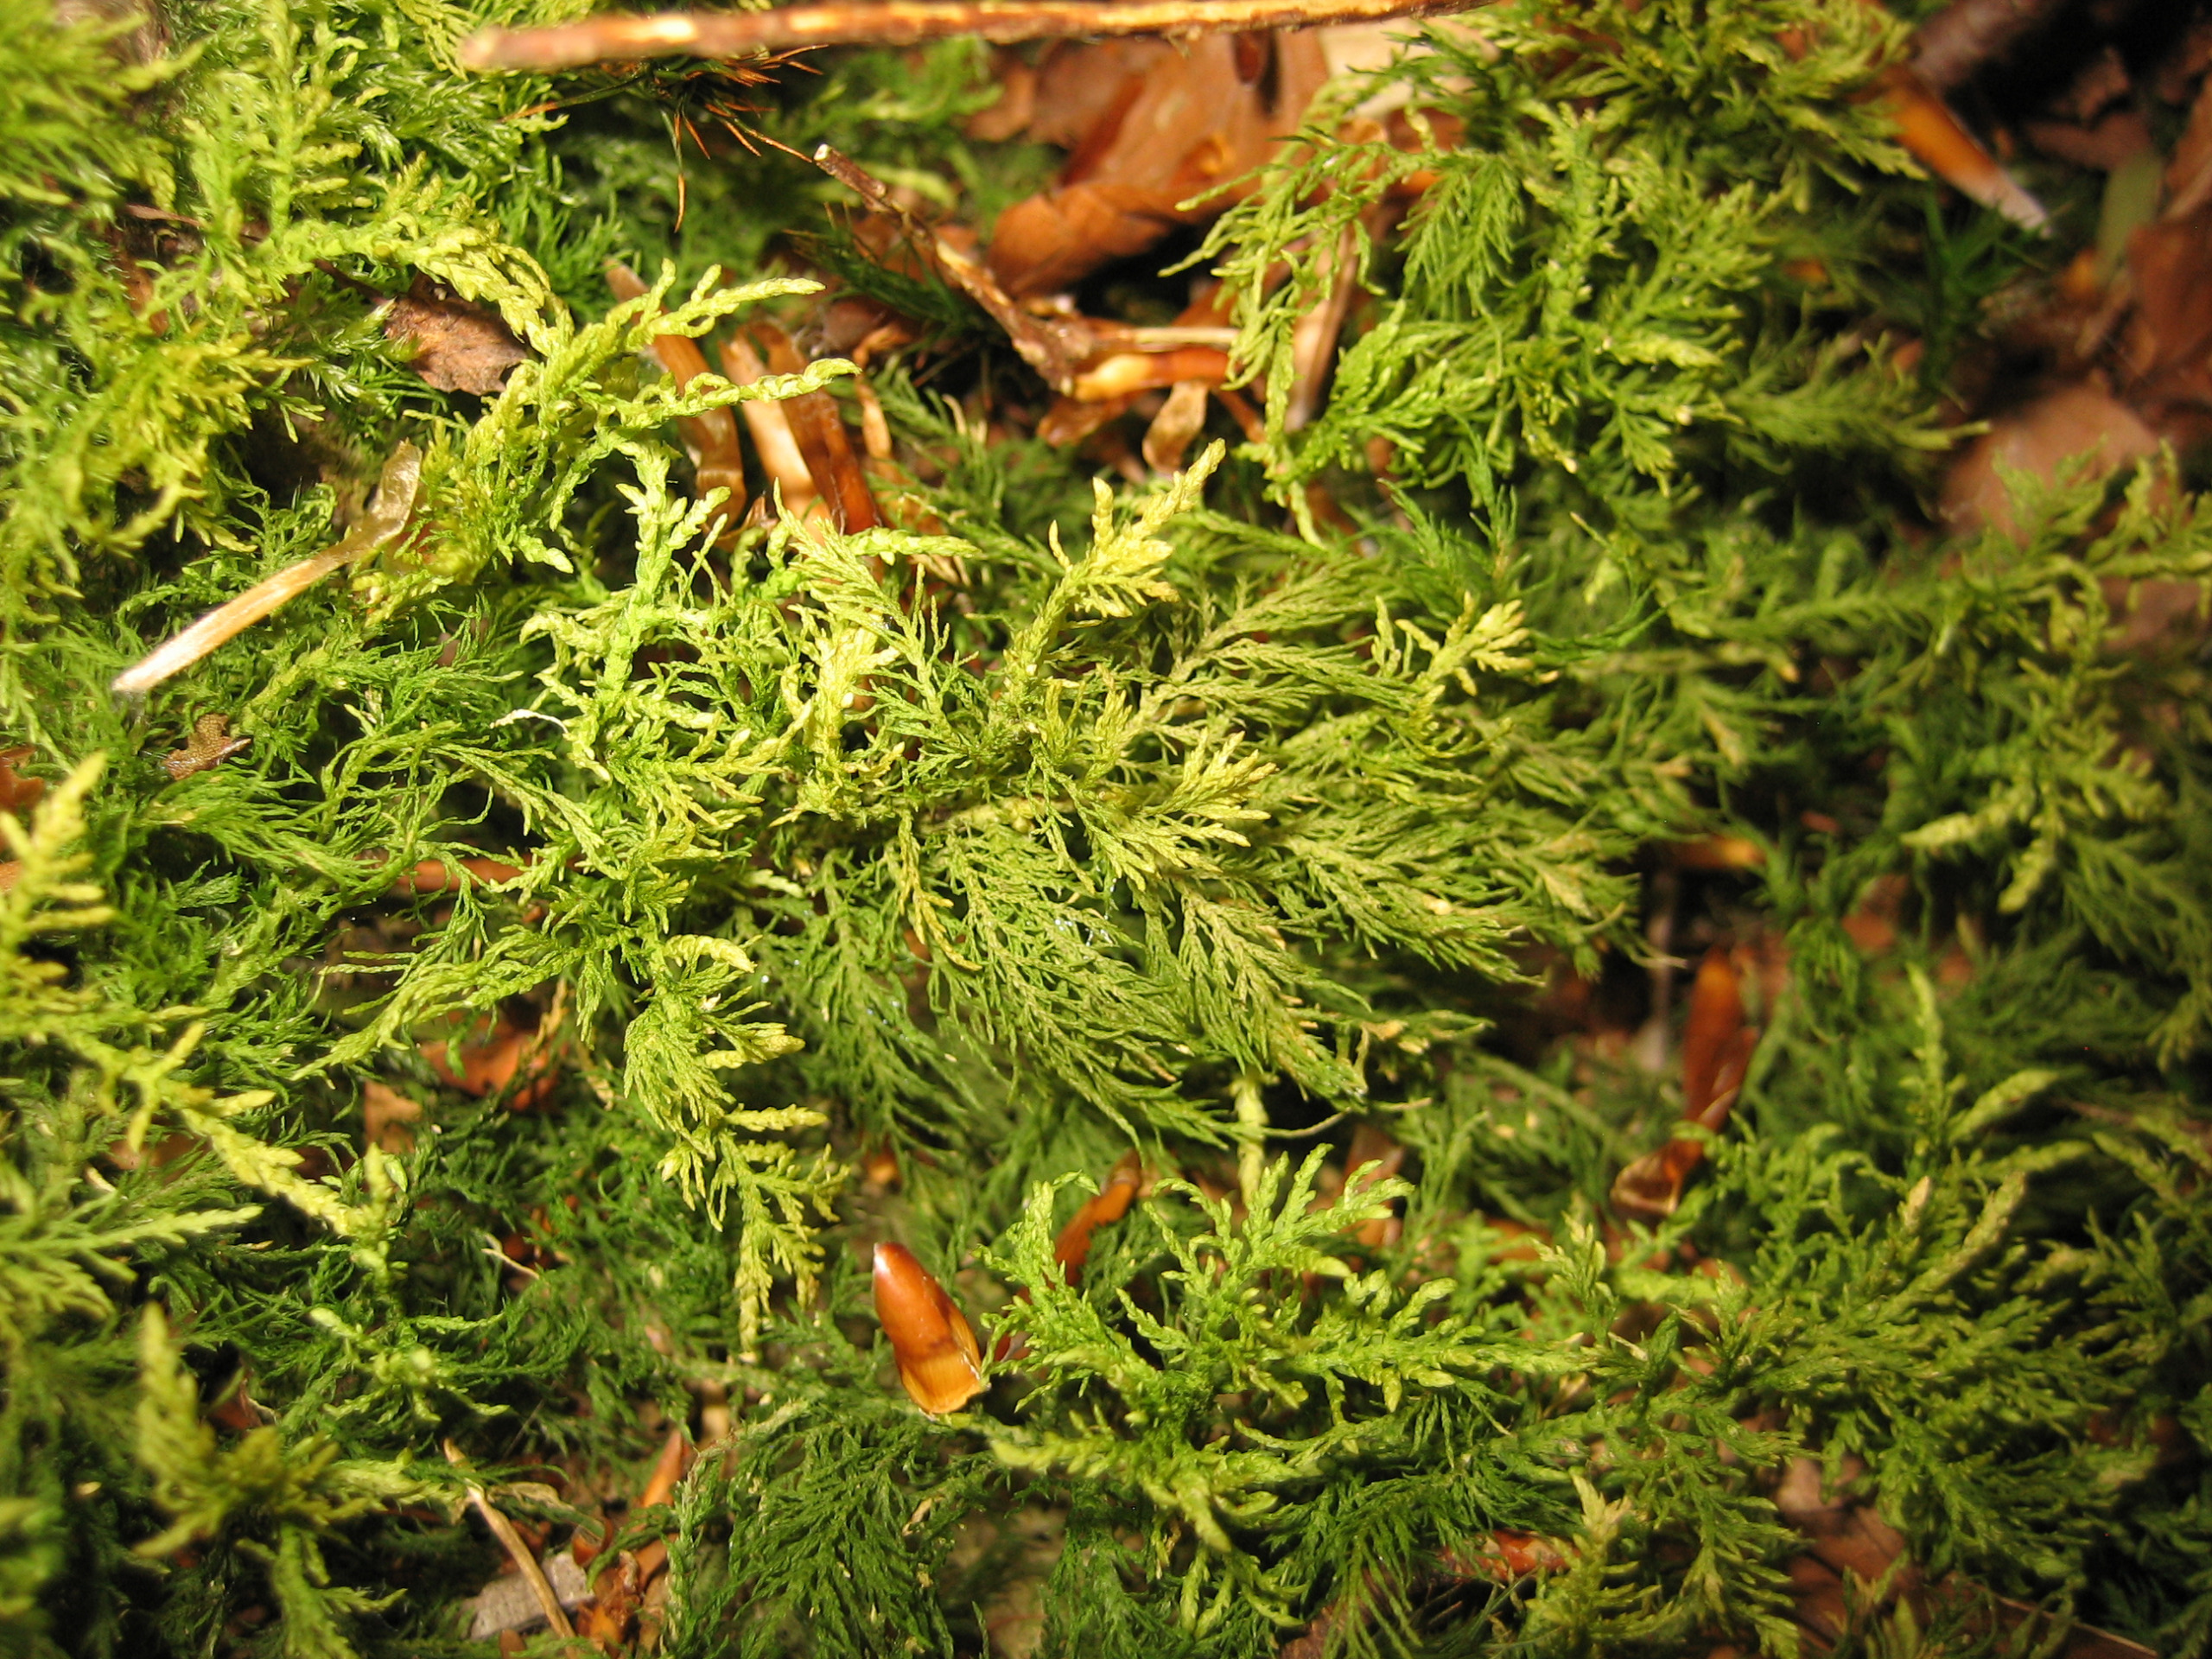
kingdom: Plantae
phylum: Bryophyta
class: Bryopsida
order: Hypnales
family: Thuidiaceae
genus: Thuidium
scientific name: Thuidium tamariscinum
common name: Pryd-bregnemos
